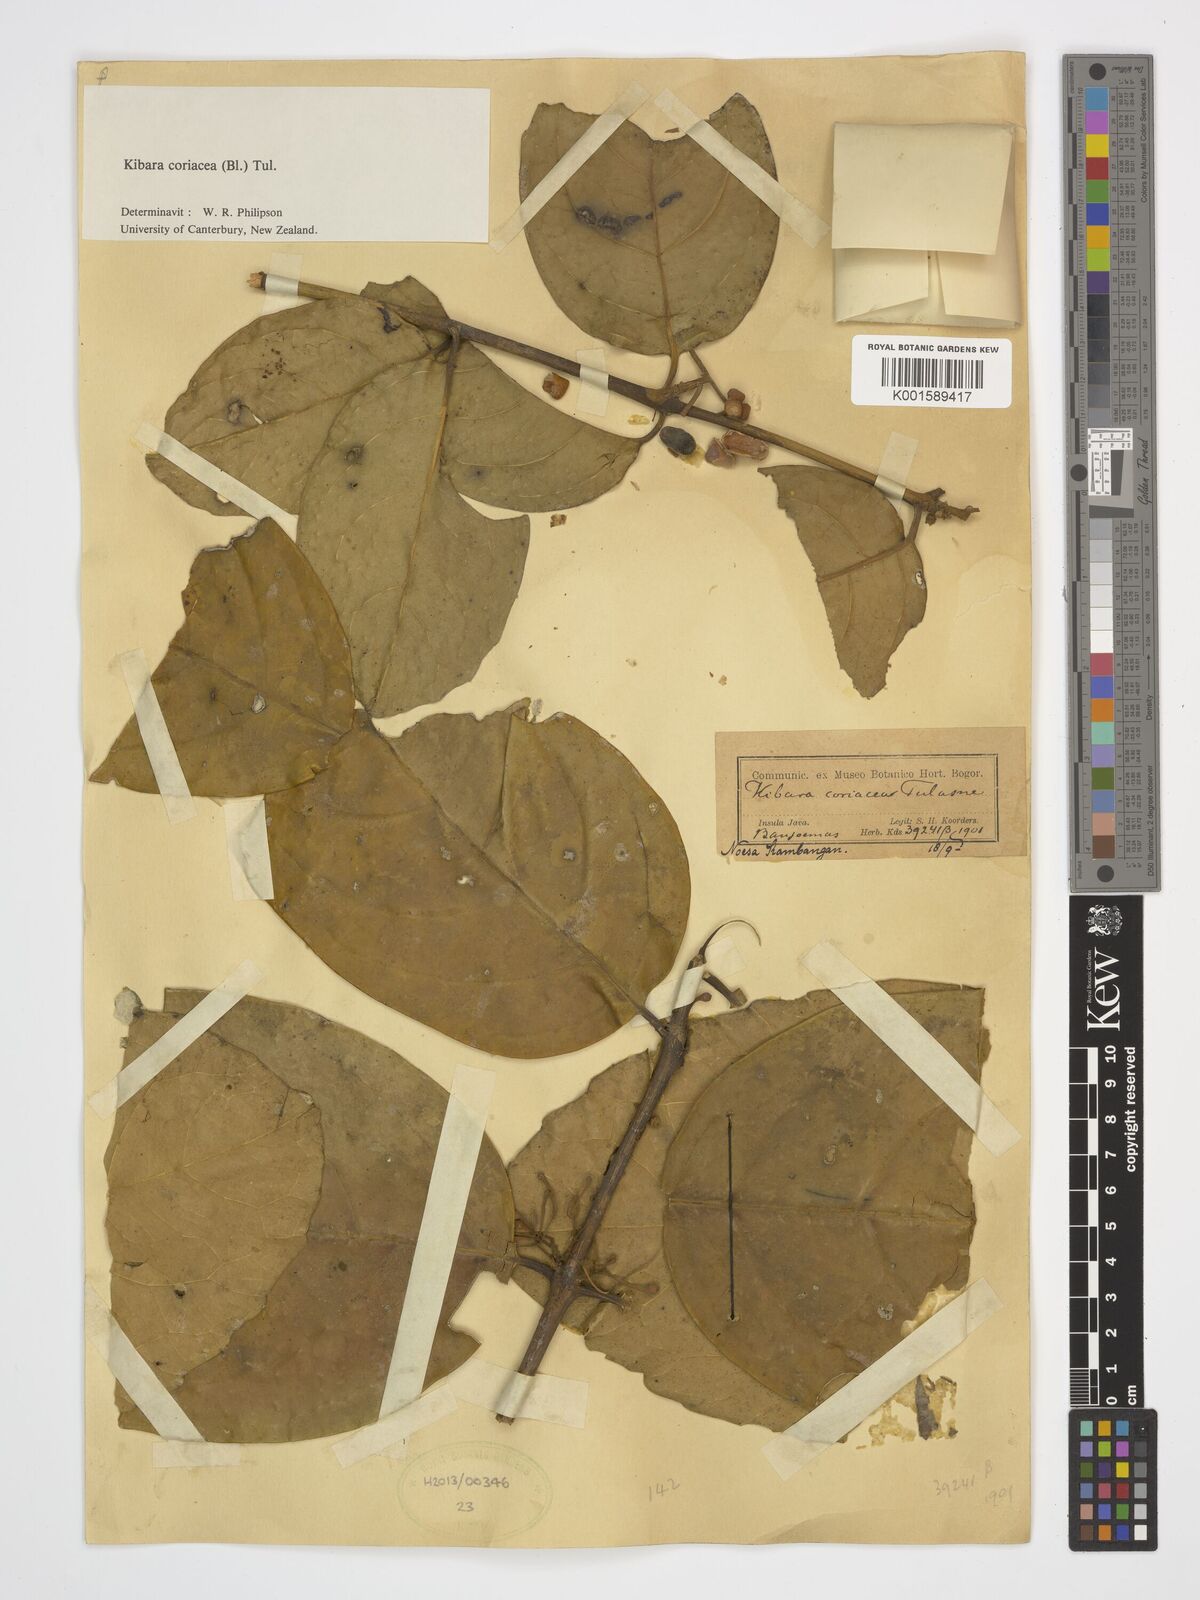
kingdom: Plantae
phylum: Tracheophyta
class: Magnoliopsida
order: Laurales
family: Monimiaceae
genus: Kibara
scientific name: Kibara coriacea
